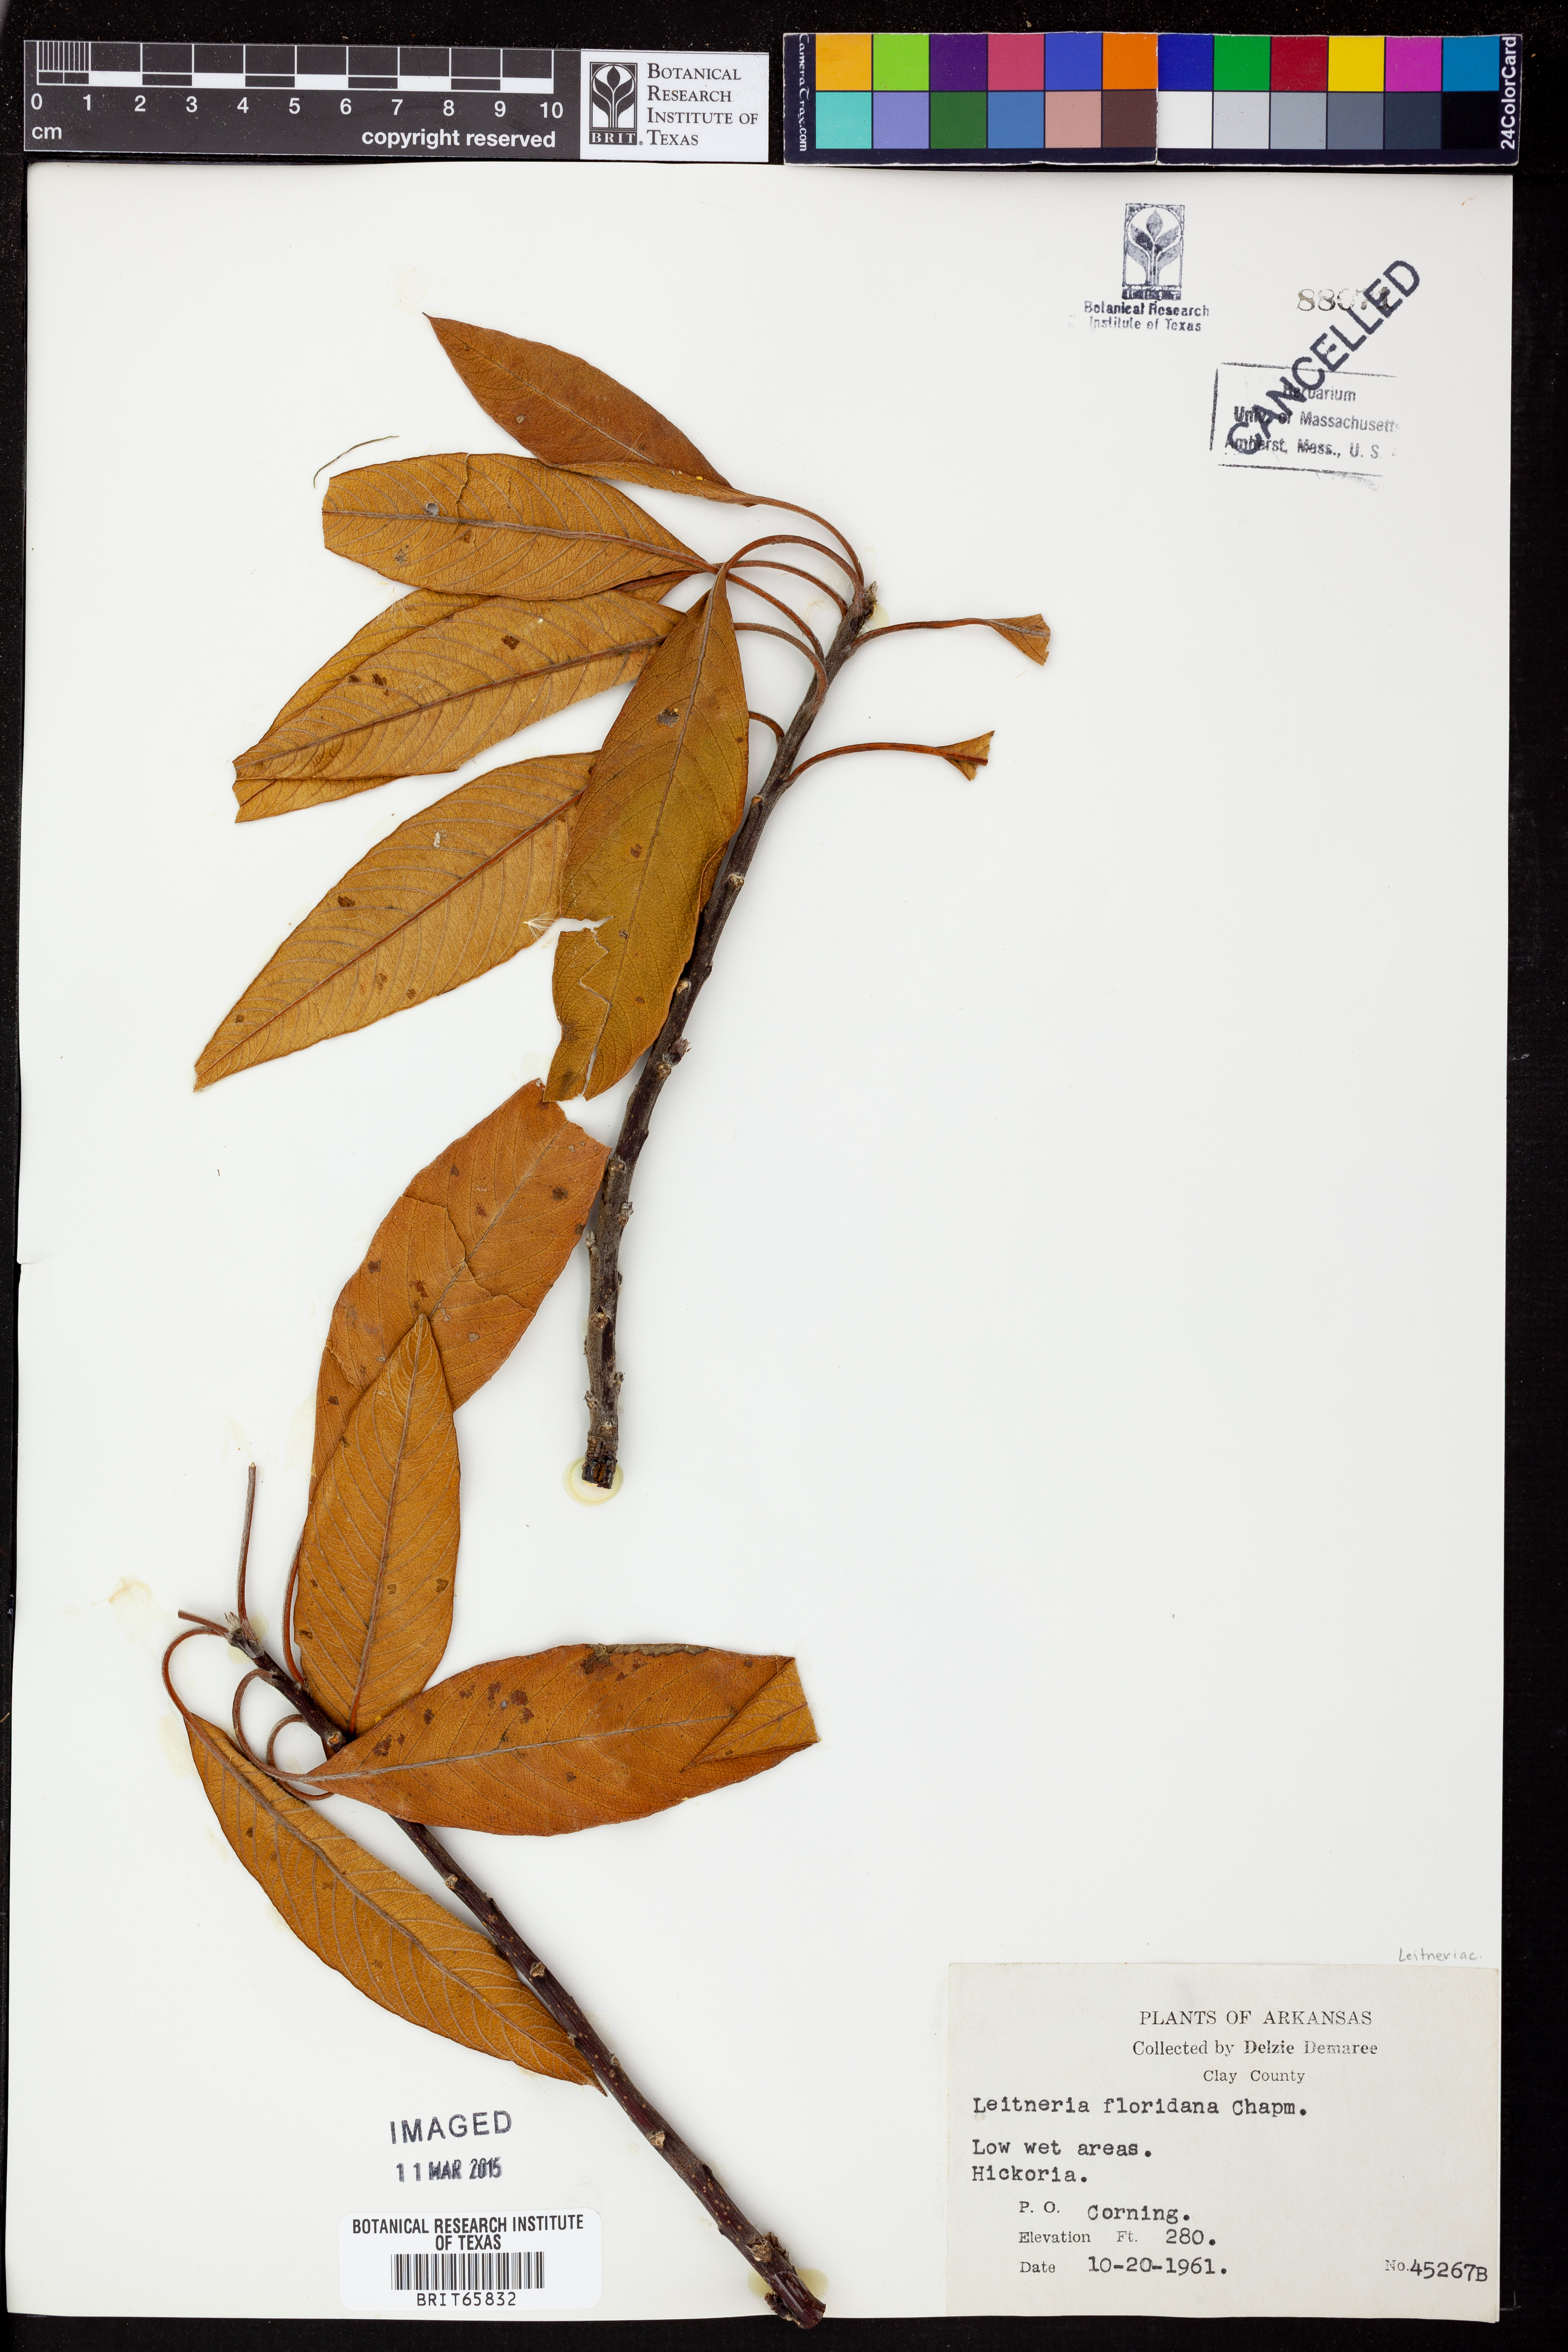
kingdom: Plantae
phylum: Tracheophyta
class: Magnoliopsida
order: Sapindales
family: Simaroubaceae
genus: Leitneria
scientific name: Leitneria floridana
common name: Corkwood
